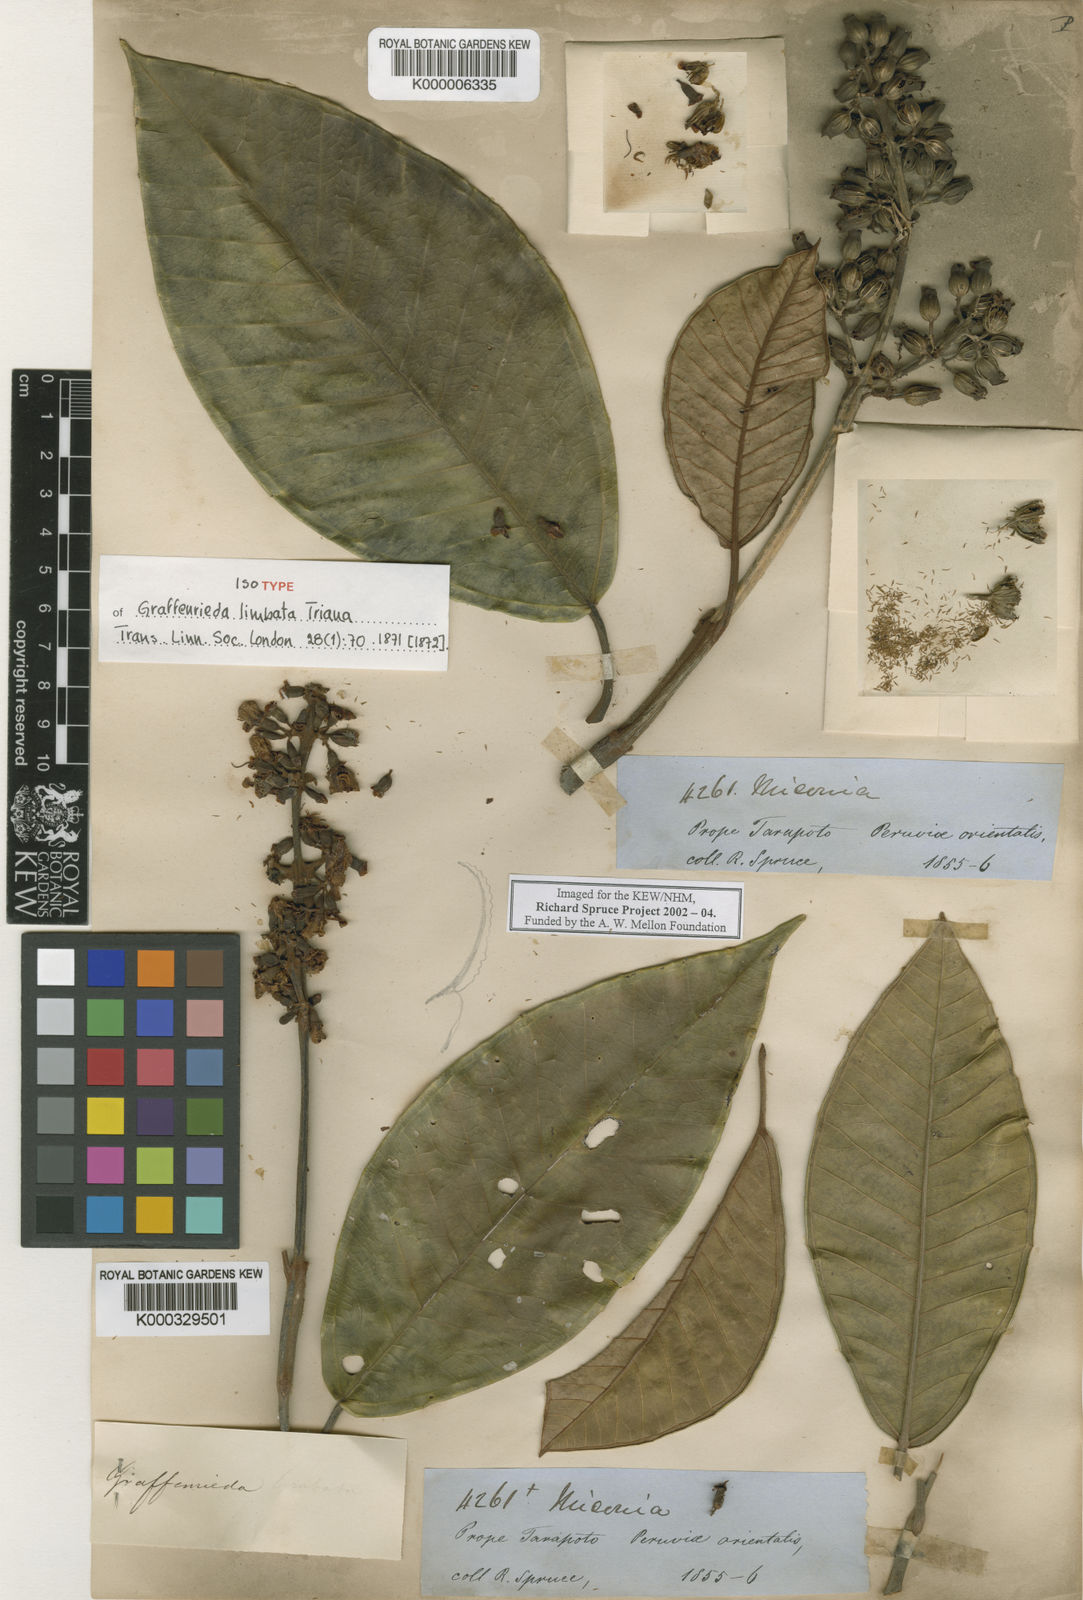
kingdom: Plantae
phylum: Tracheophyta
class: Magnoliopsida
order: Myrtales
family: Melastomataceae
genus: Graffenrieda
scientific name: Graffenrieda limbata
